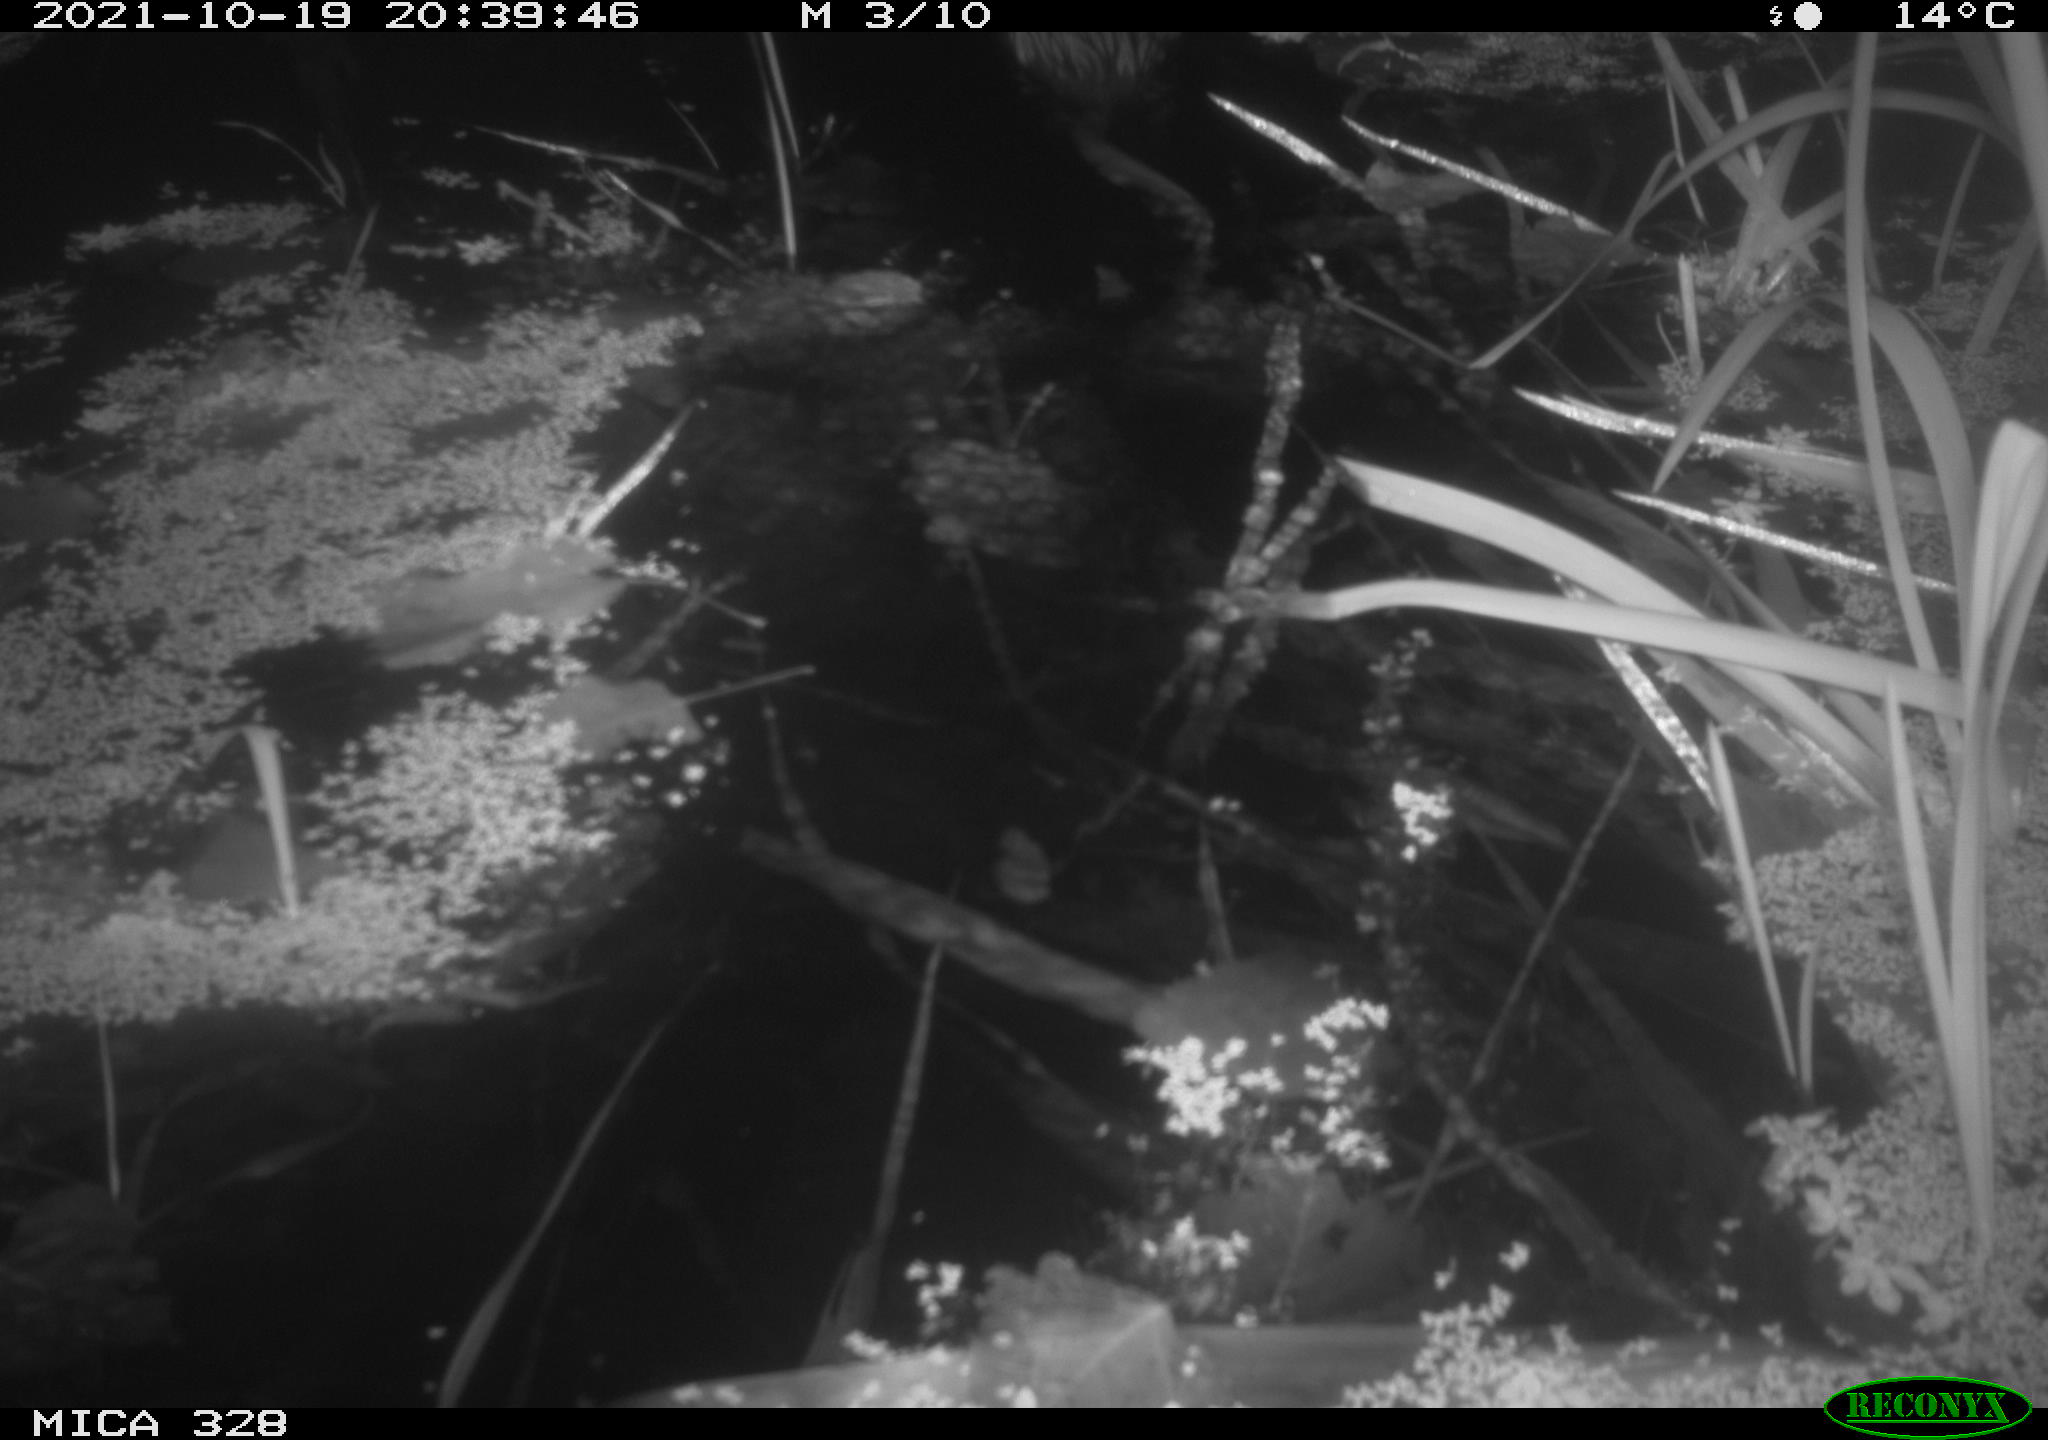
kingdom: Animalia
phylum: Chordata
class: Mammalia
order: Rodentia
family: Cricetidae
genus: Ondatra
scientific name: Ondatra zibethicus
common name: Muskrat
